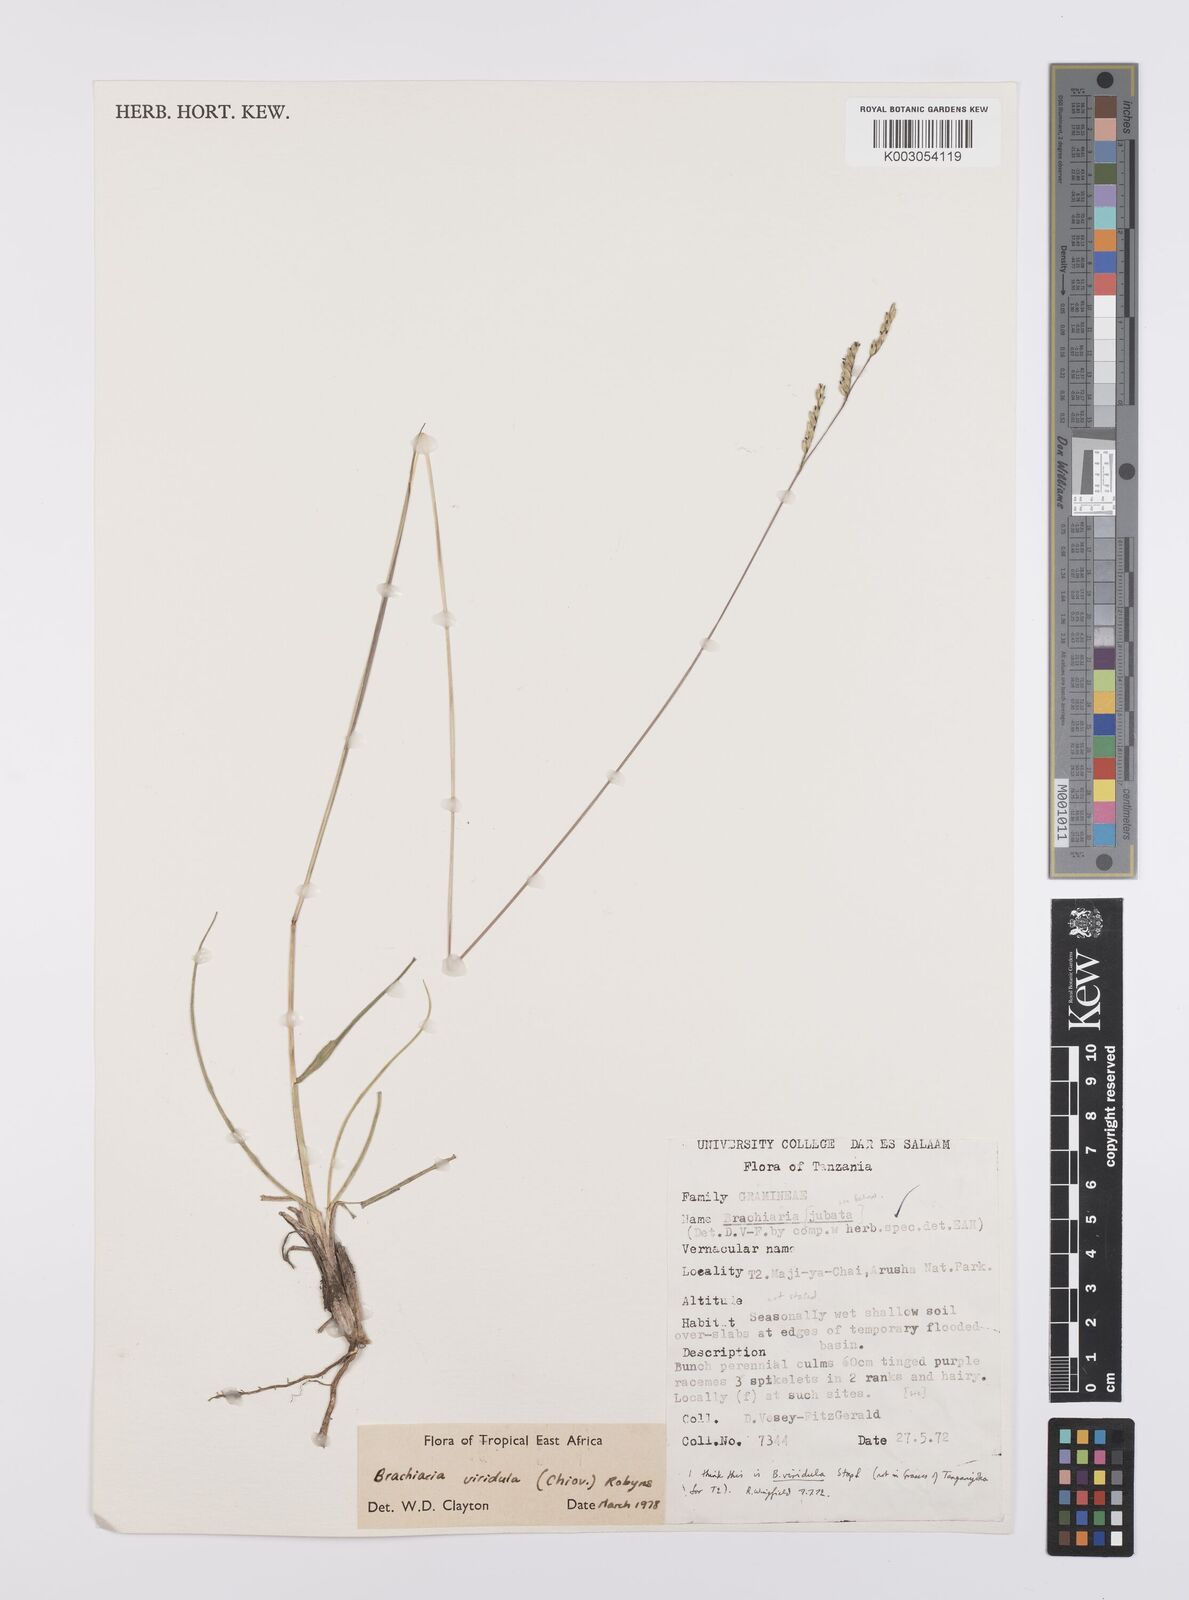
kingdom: Plantae
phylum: Tracheophyta
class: Liliopsida
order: Poales
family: Poaceae
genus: Urochloa
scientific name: Urochloa bovonei
